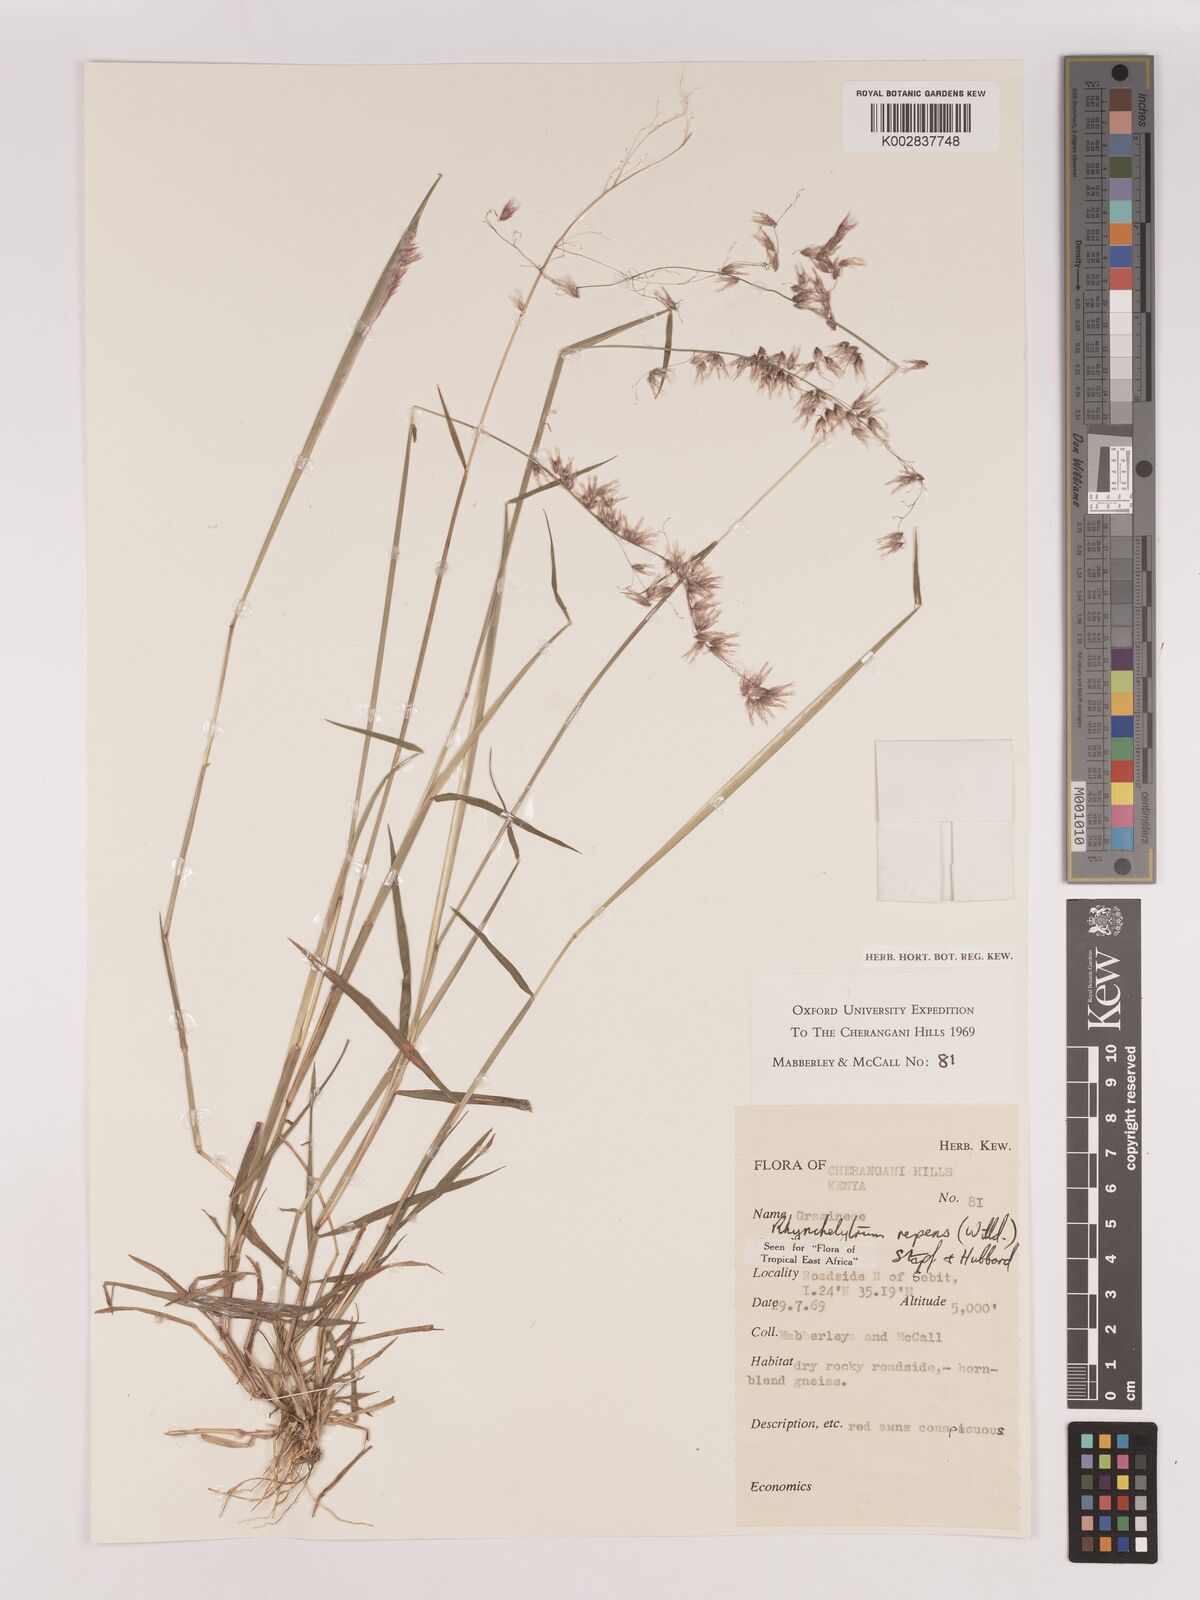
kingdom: Plantae
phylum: Tracheophyta
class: Liliopsida
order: Poales
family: Poaceae
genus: Melinis
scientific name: Melinis repens
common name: Rose natal grass
